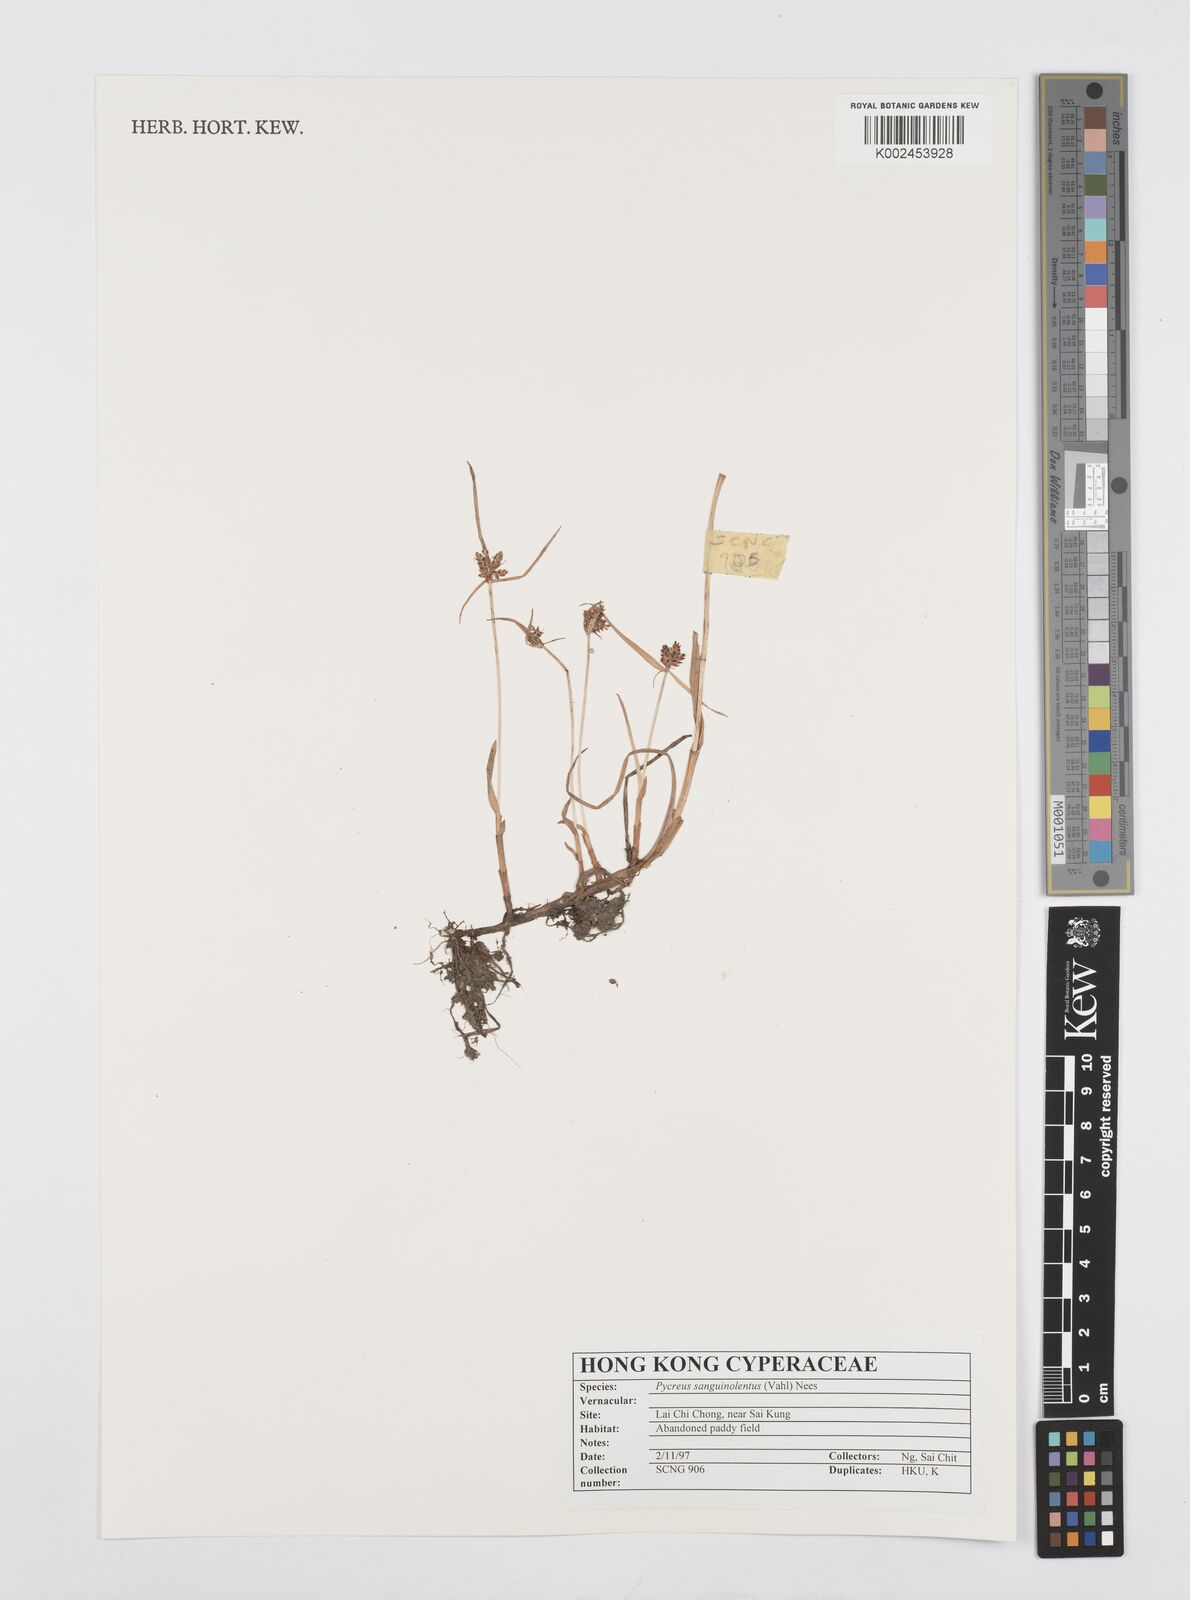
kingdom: Plantae
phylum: Tracheophyta
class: Liliopsida
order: Poales
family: Cyperaceae
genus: Cyperus
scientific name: Cyperus sanguinolentus
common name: Purpleglume flatsedge
